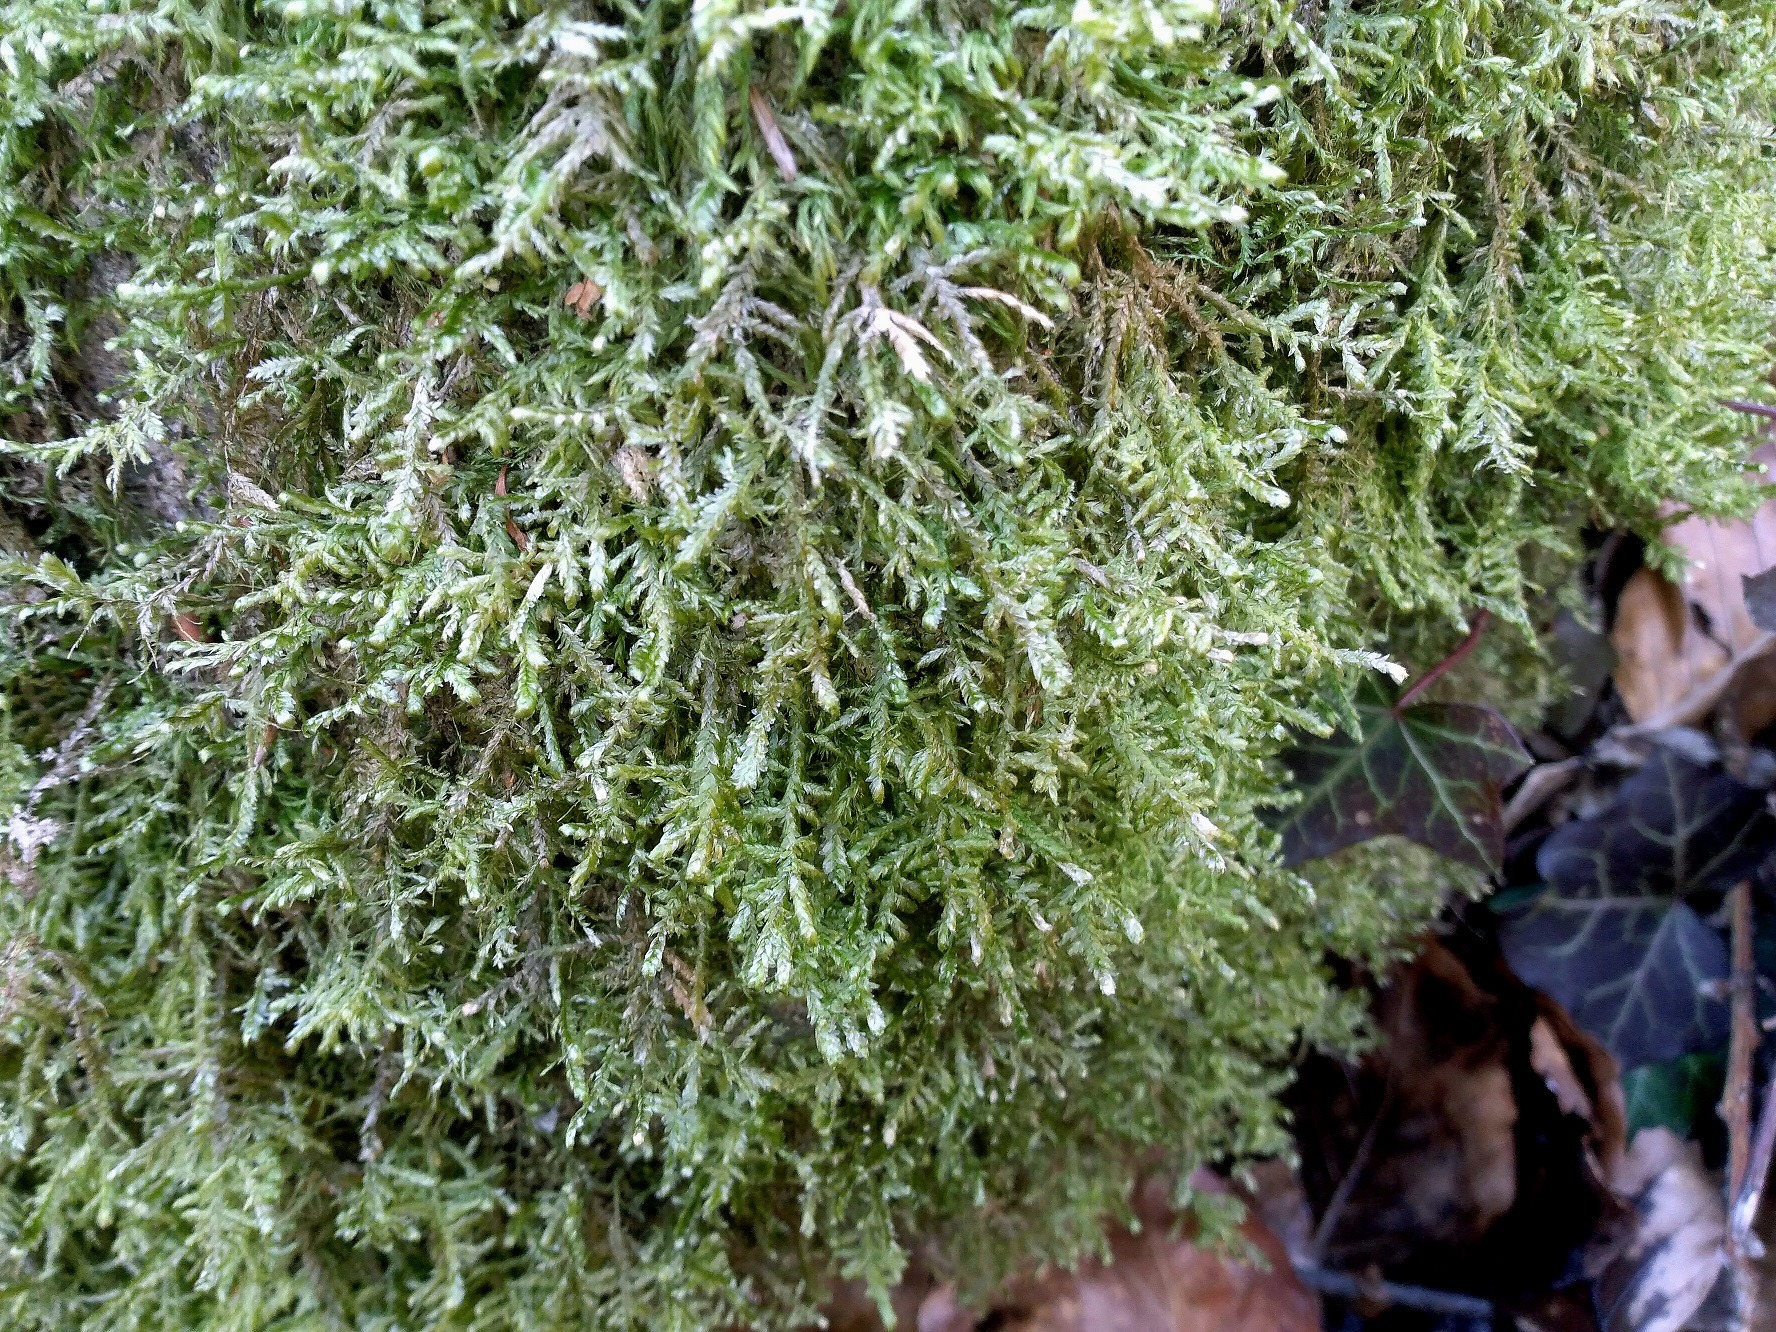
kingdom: Plantae
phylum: Bryophyta
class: Bryopsida
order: Hypnales
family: Neckeraceae
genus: Alleniella
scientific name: Alleniella complanata
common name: Almindelig fladmos
